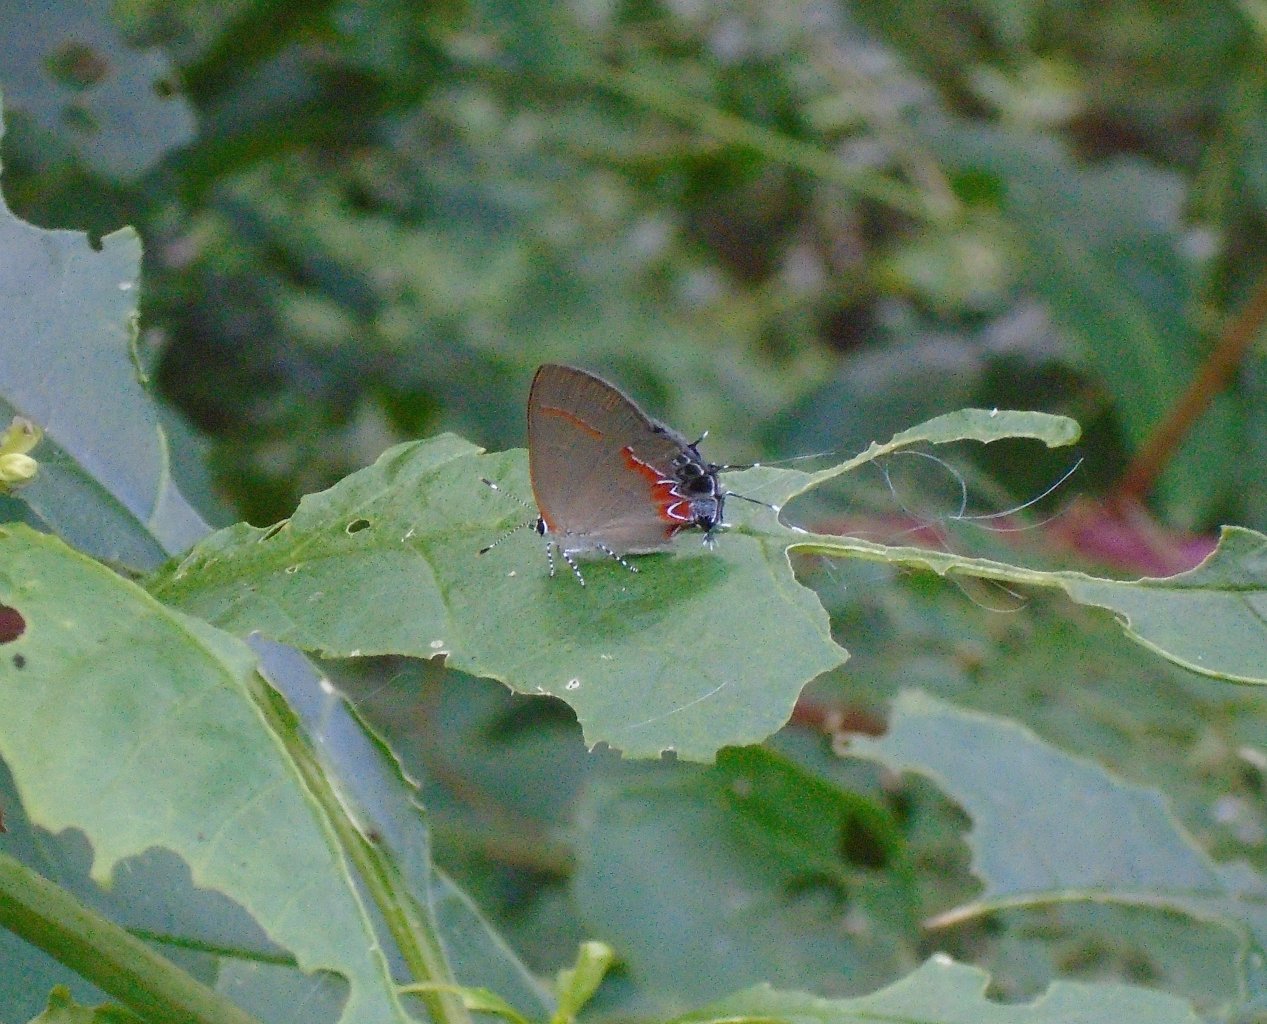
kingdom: Animalia
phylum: Arthropoda
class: Insecta
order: Lepidoptera
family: Lycaenidae
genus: Calycopis
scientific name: Calycopis cecrops
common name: Red-banded Hairstreak
